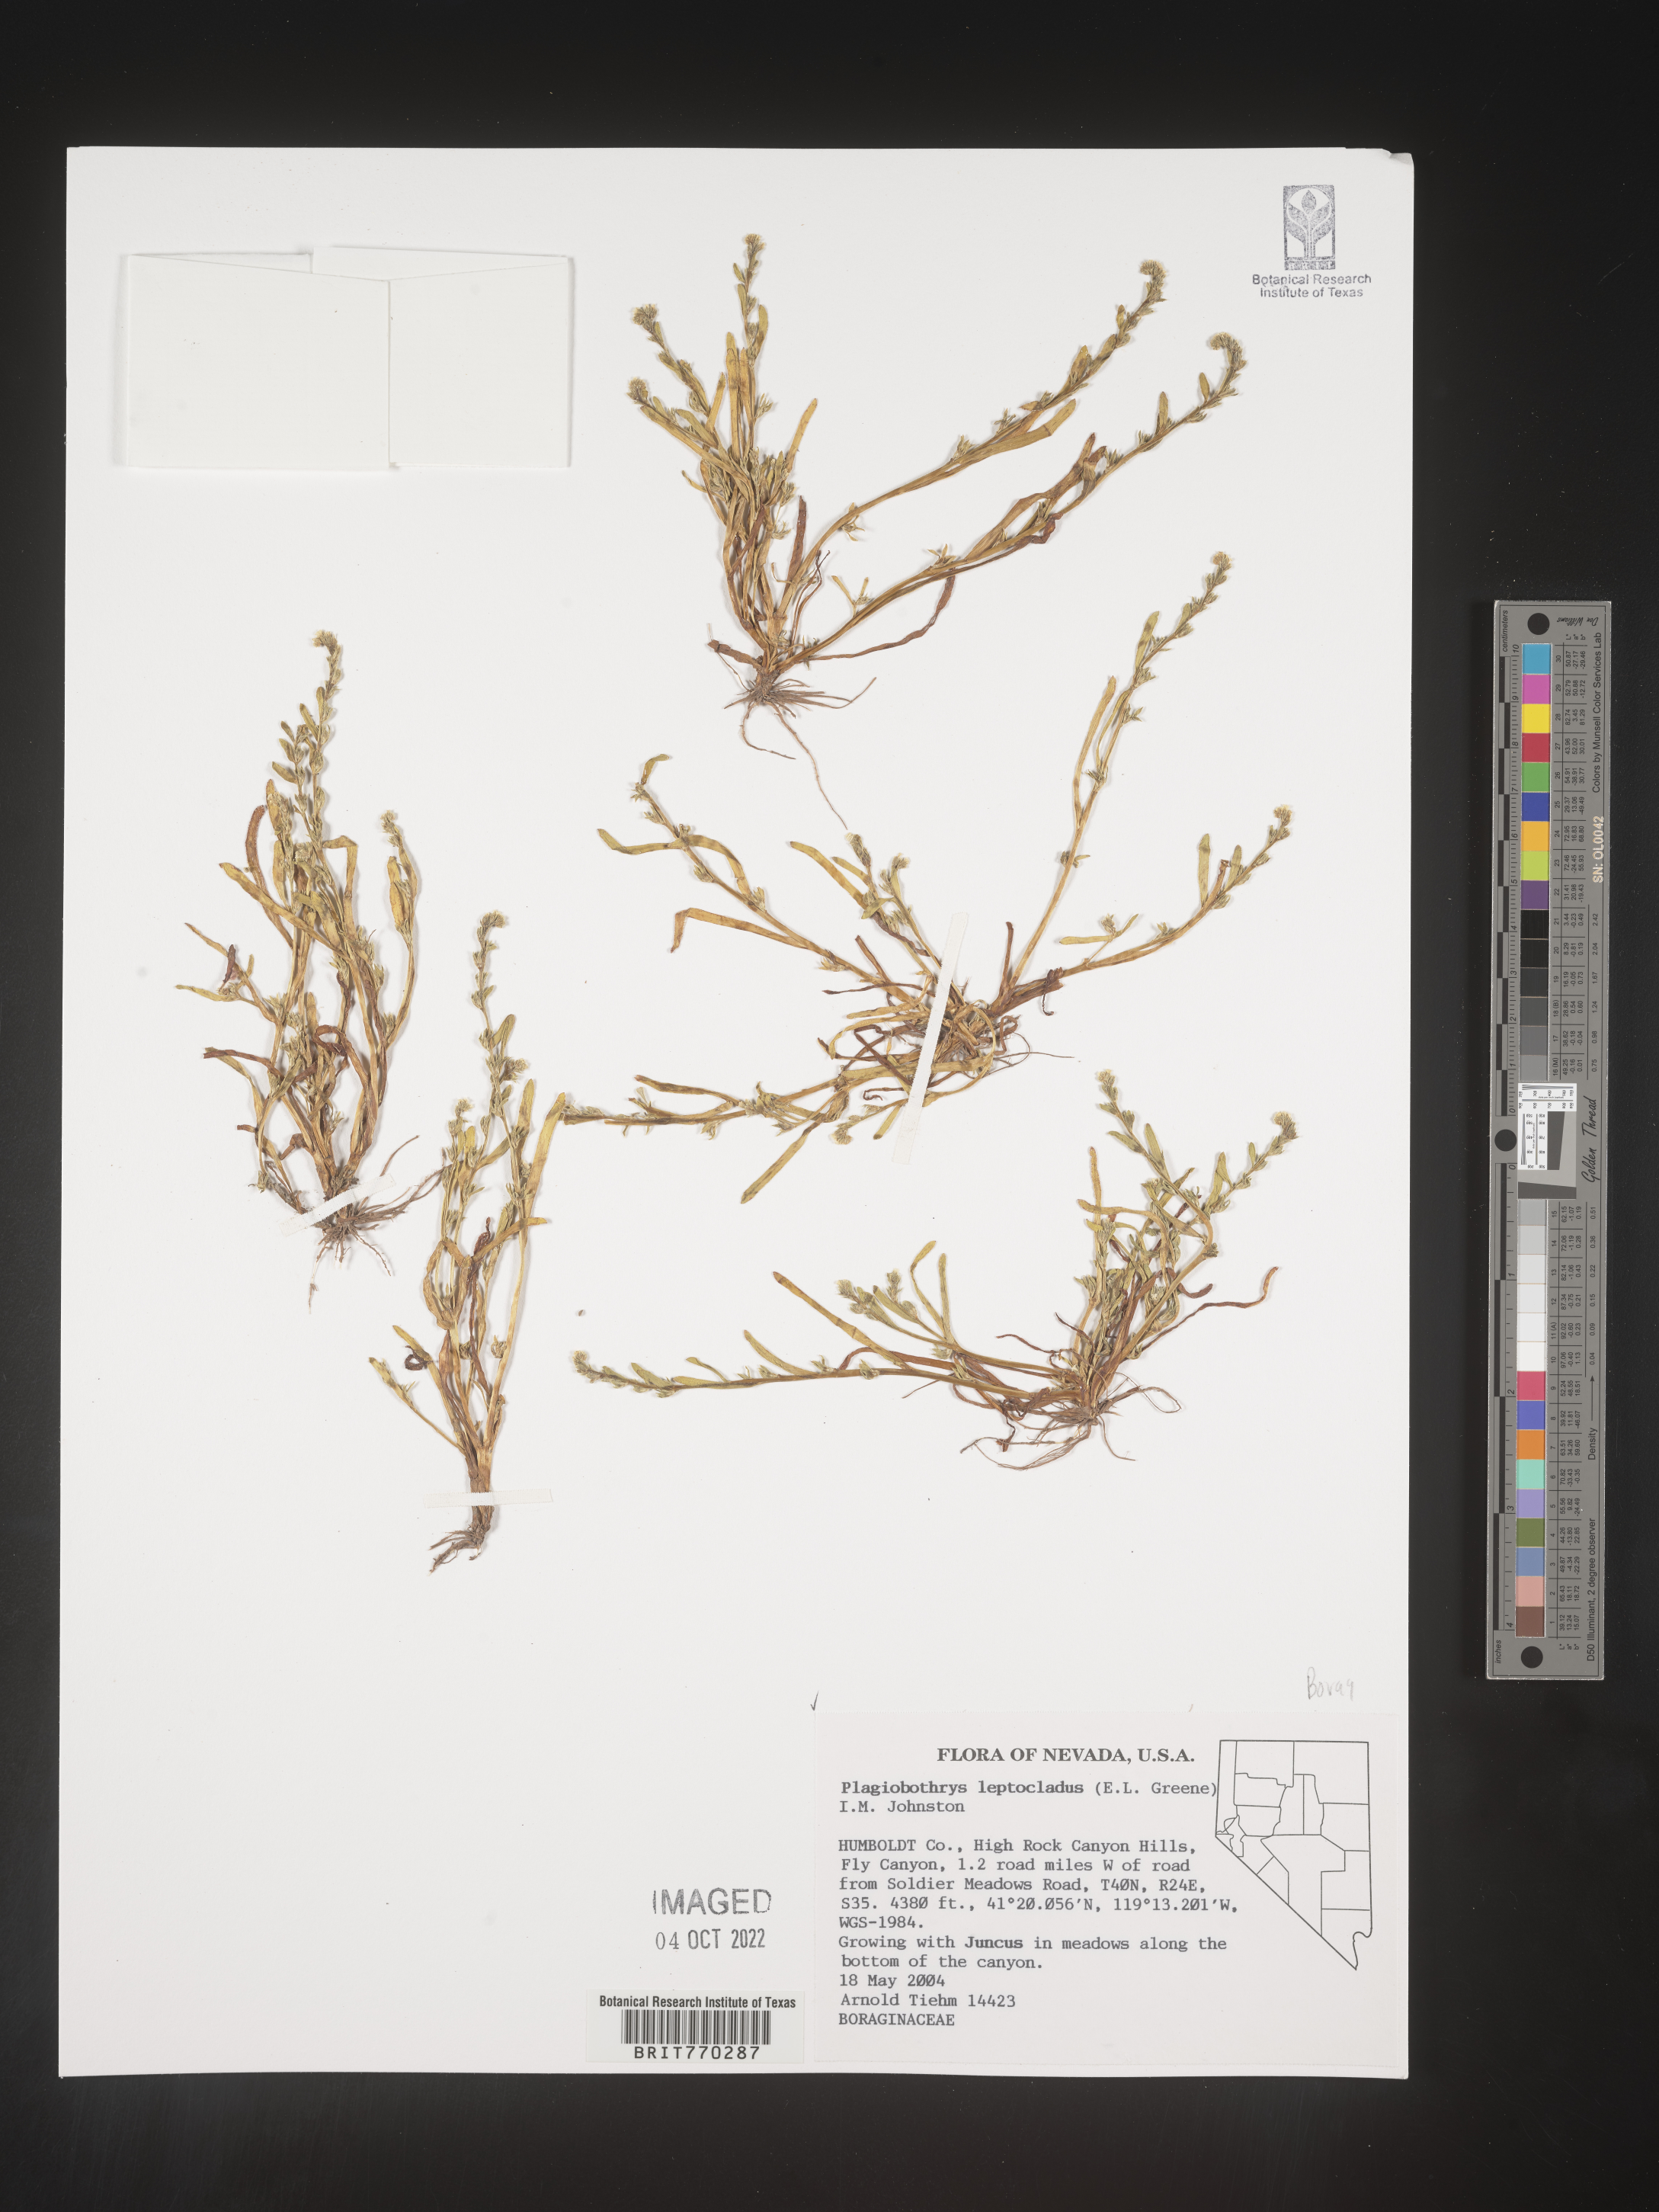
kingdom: Plantae
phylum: Tracheophyta
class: Magnoliopsida
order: Boraginales
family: Boraginaceae
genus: Plagiobothrys
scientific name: Plagiobothrys
